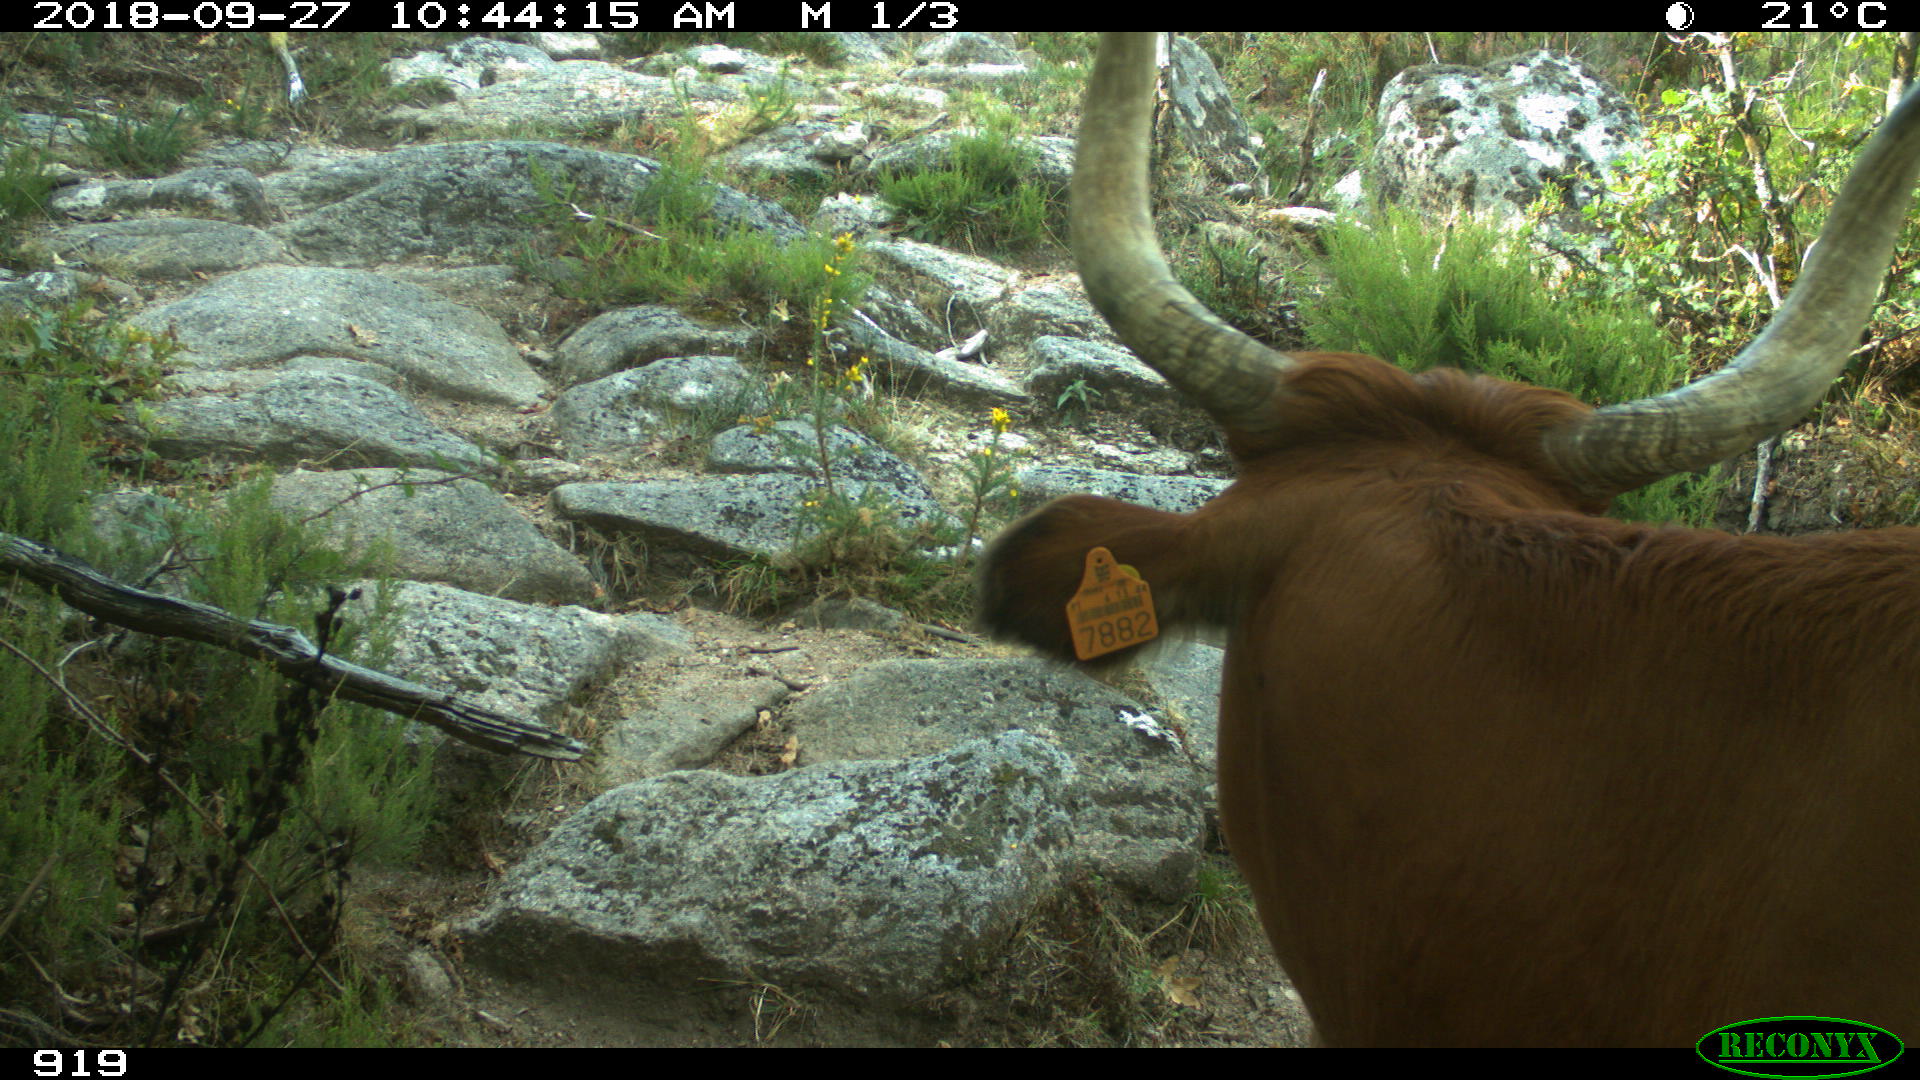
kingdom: Animalia
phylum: Chordata
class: Mammalia
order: Artiodactyla
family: Bovidae
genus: Bos
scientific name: Bos taurus
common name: Domesticated cattle
